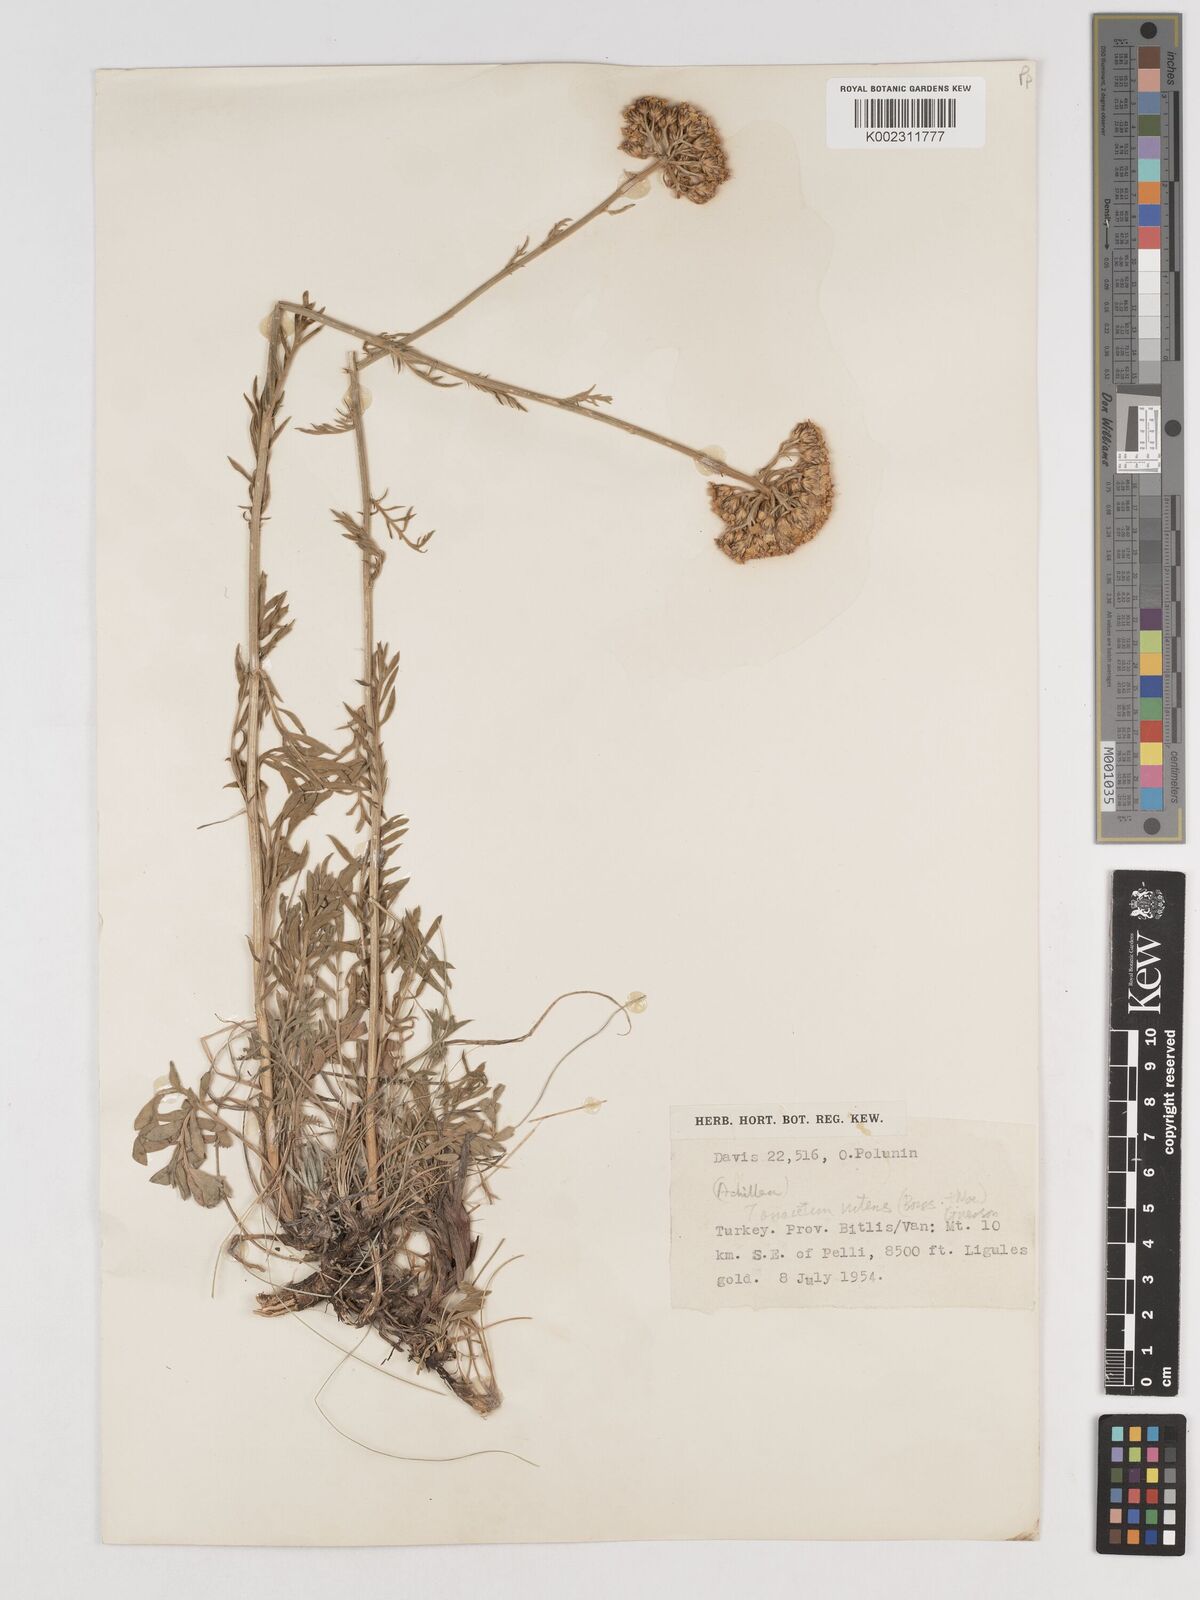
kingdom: Plantae
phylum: Tracheophyta
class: Magnoliopsida
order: Asterales
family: Asteraceae
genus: Tanacetum
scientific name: Tanacetum nitens
